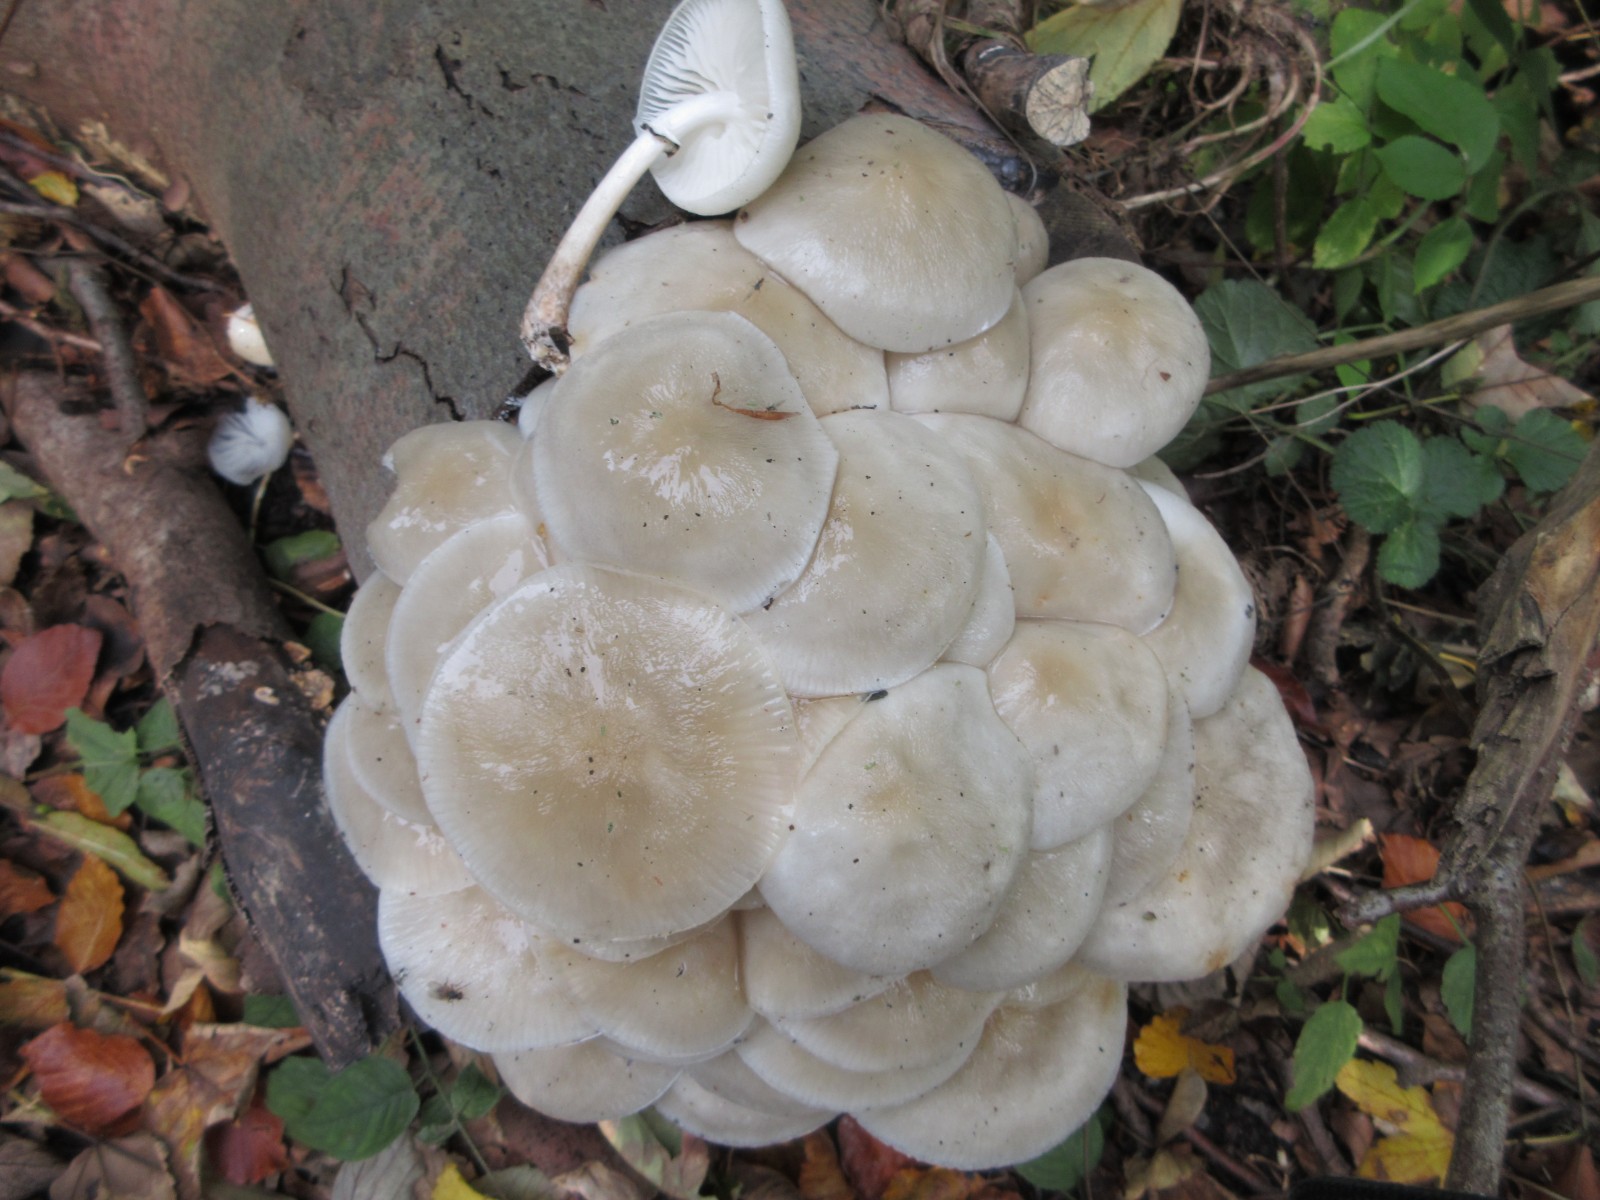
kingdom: Fungi
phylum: Basidiomycota
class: Agaricomycetes
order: Agaricales
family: Physalacriaceae
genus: Mucidula
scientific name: Mucidula mucida
